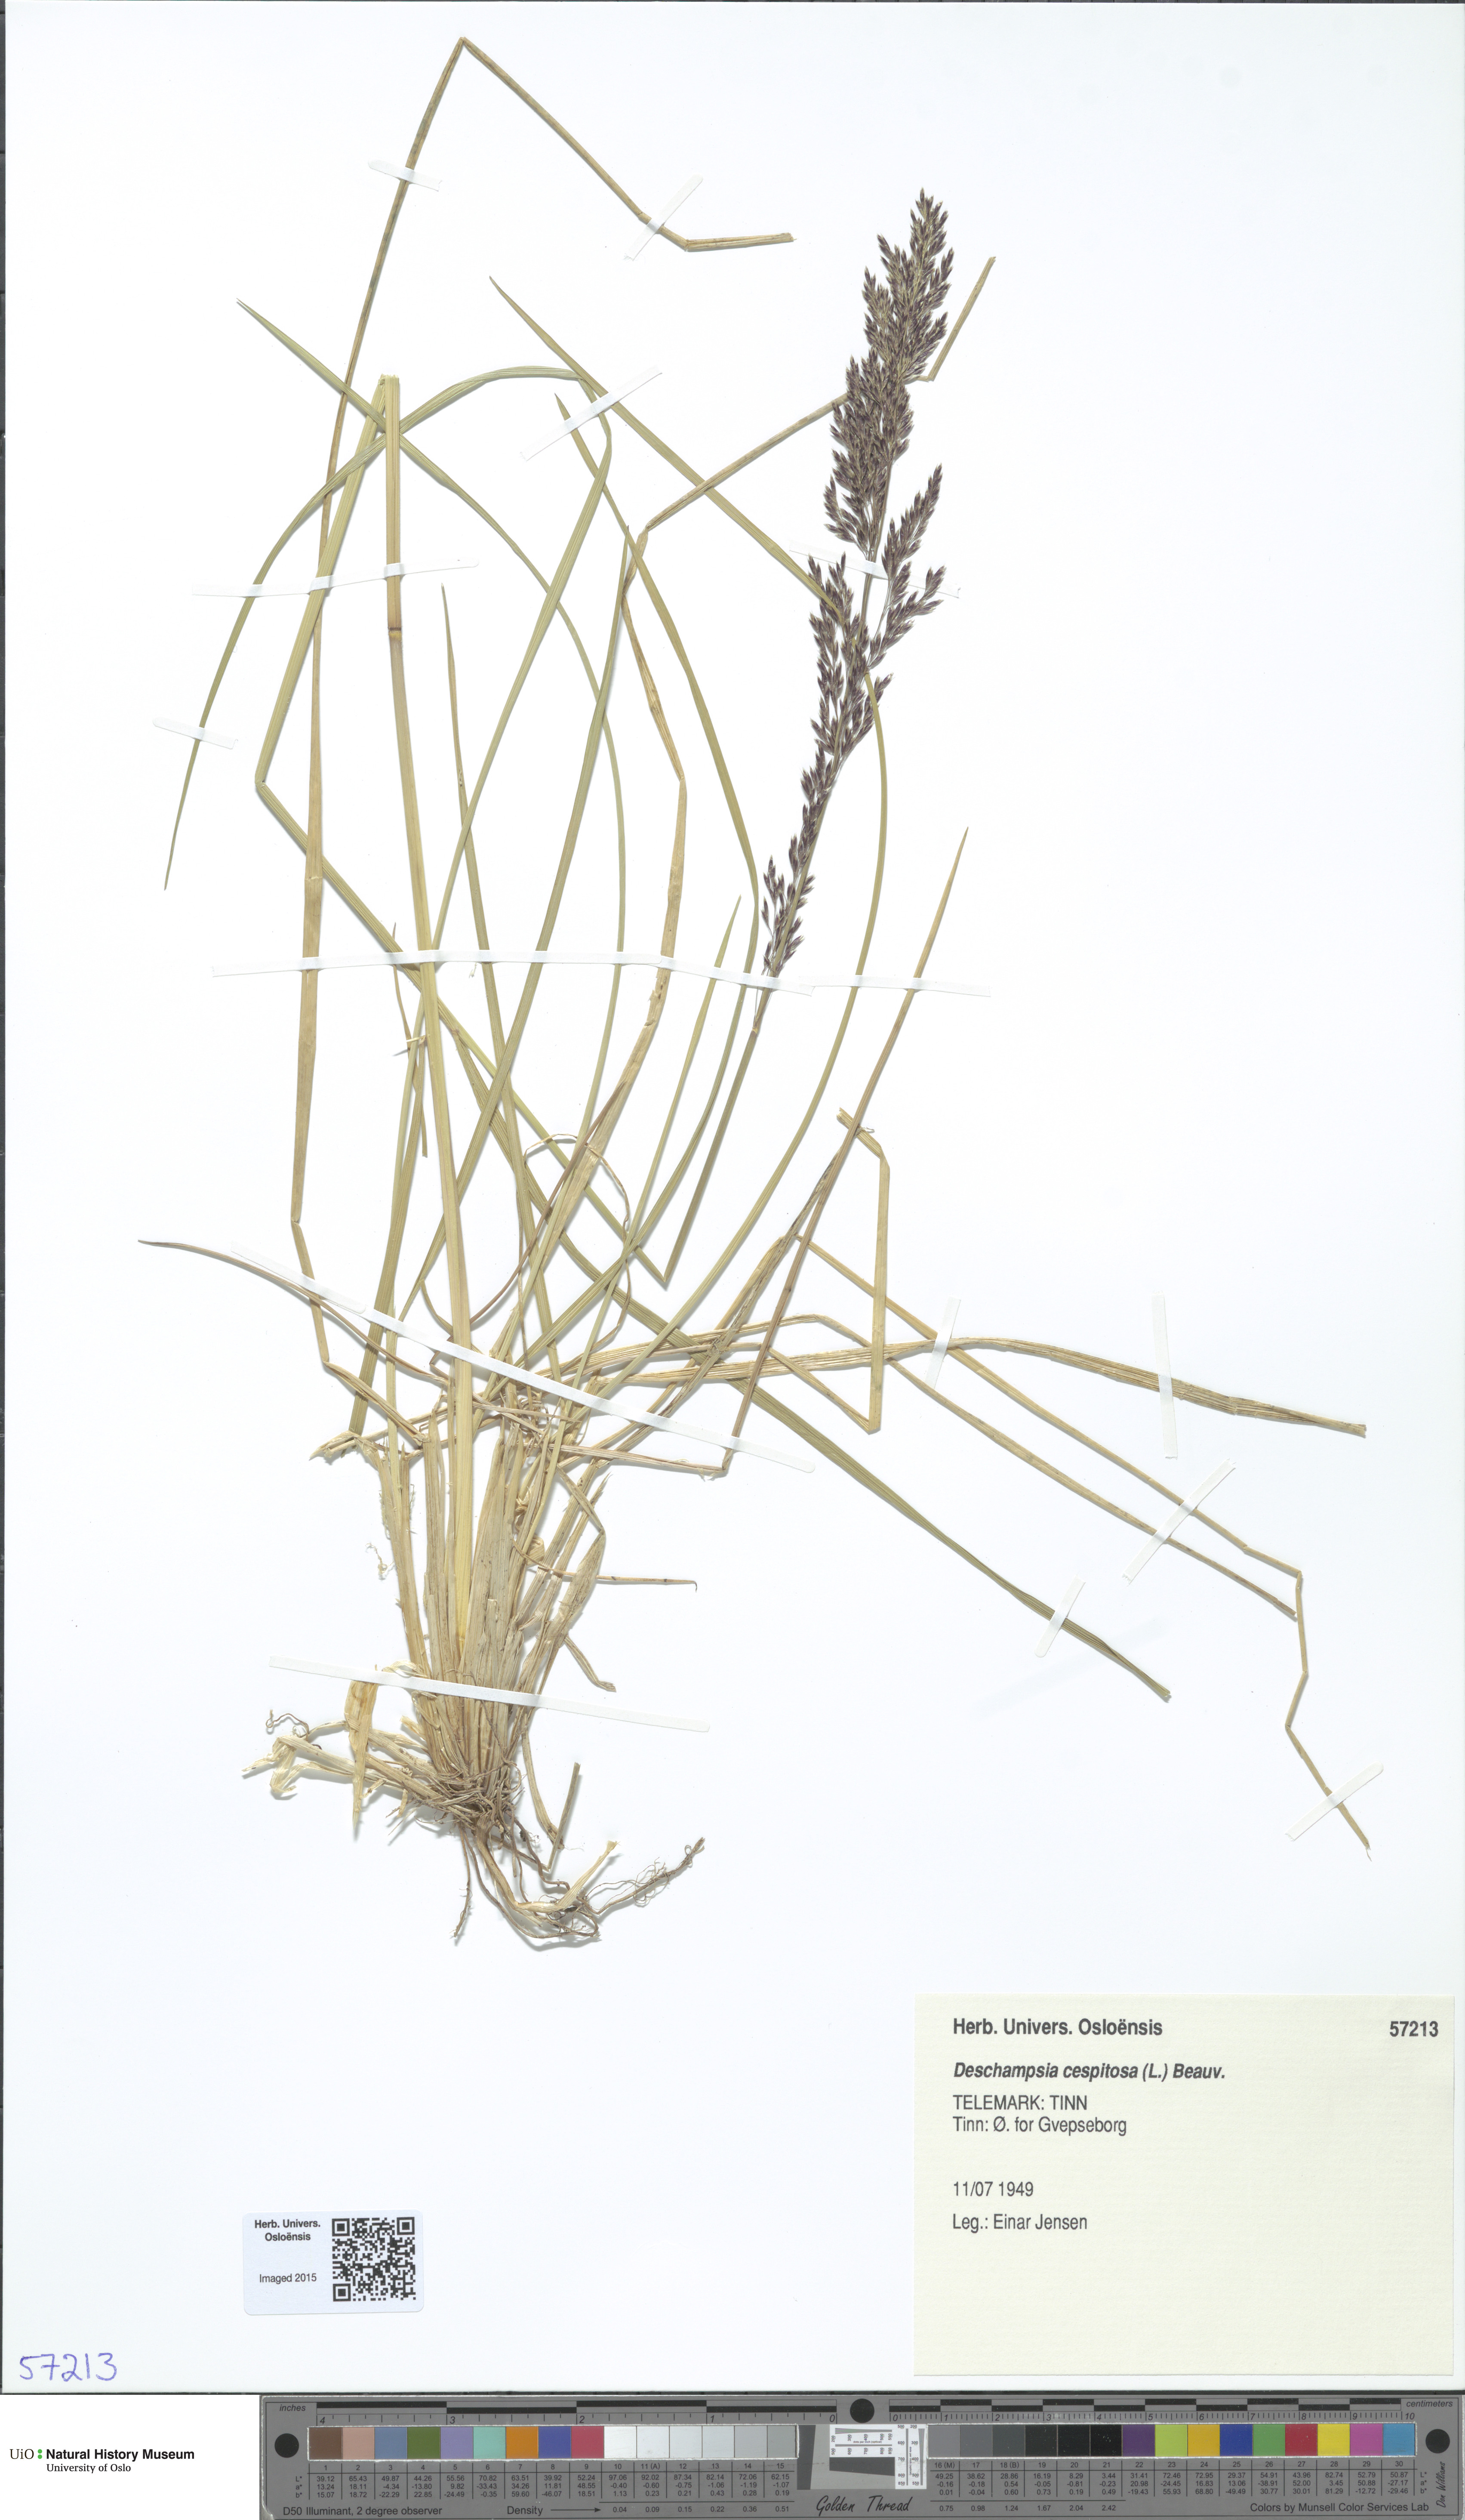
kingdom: Plantae
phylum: Tracheophyta
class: Liliopsida
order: Poales
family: Poaceae
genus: Deschampsia
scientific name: Deschampsia cespitosa
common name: Tufted hair-grass
